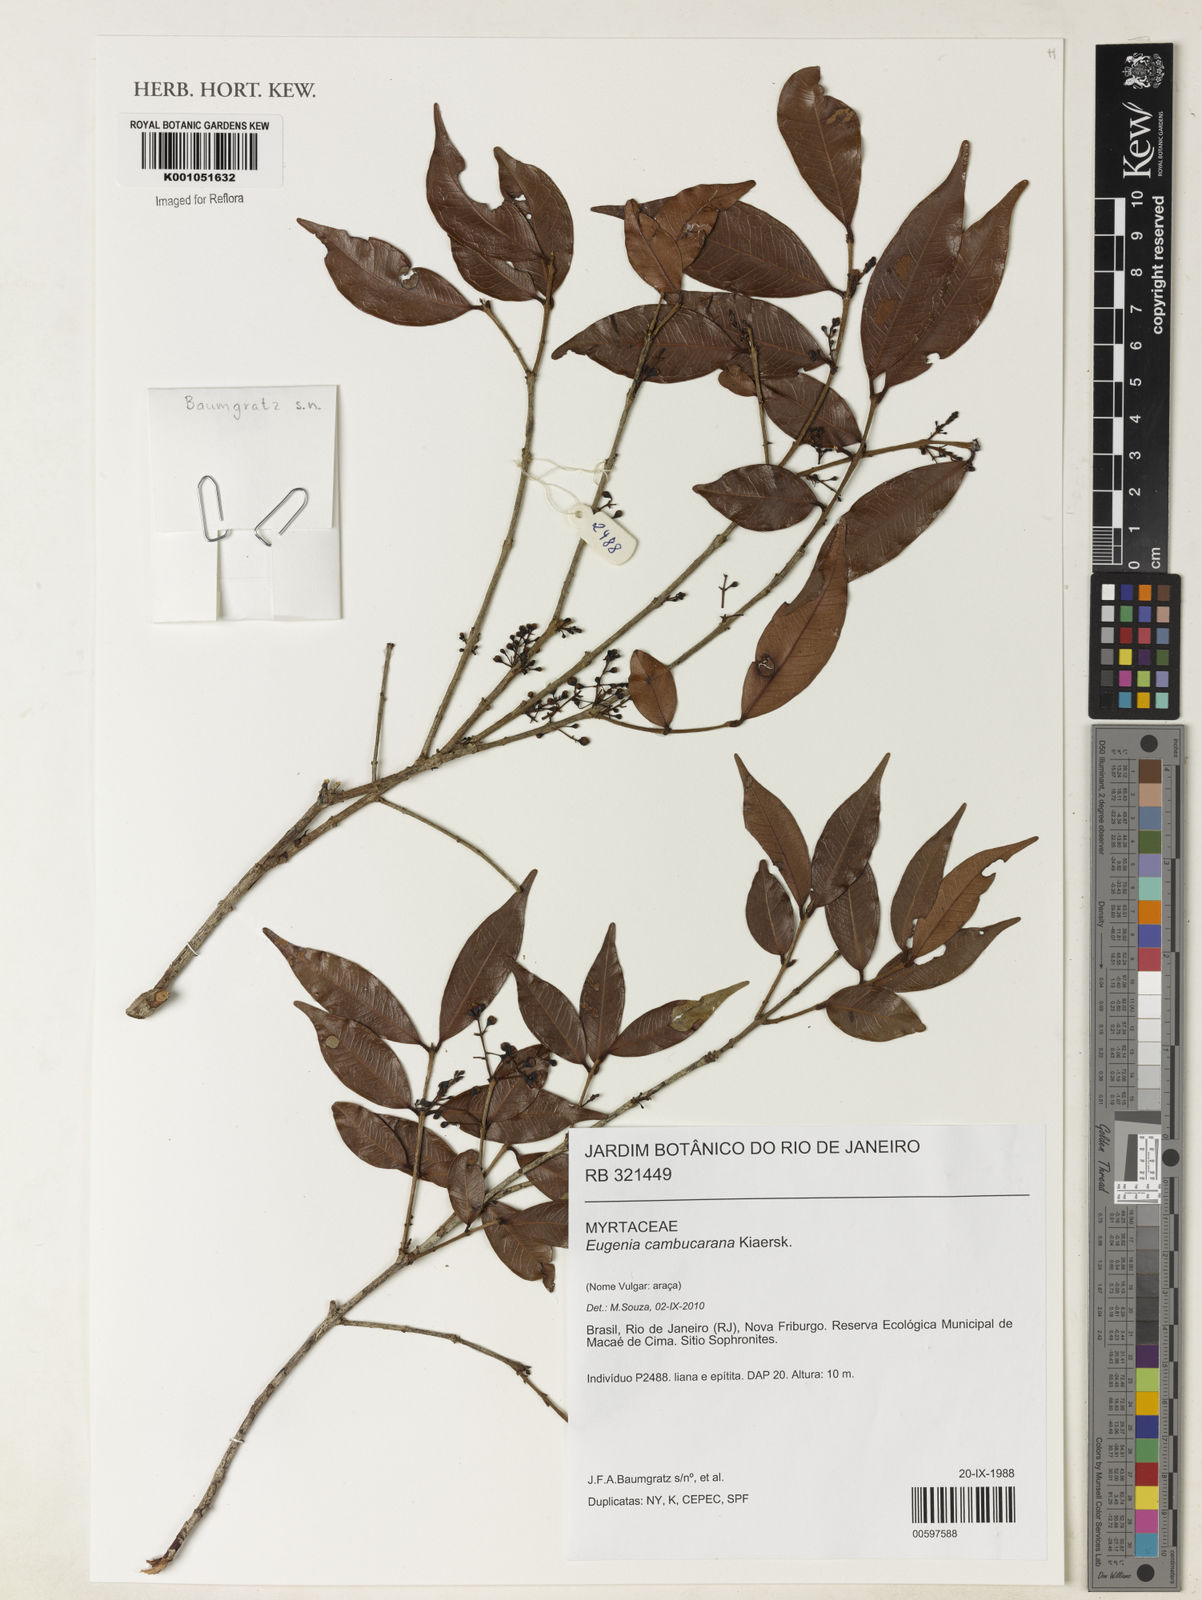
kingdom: Plantae
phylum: Tracheophyta
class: Magnoliopsida
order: Myrtales
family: Myrtaceae
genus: Eugenia
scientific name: Eugenia supraaxillaris
